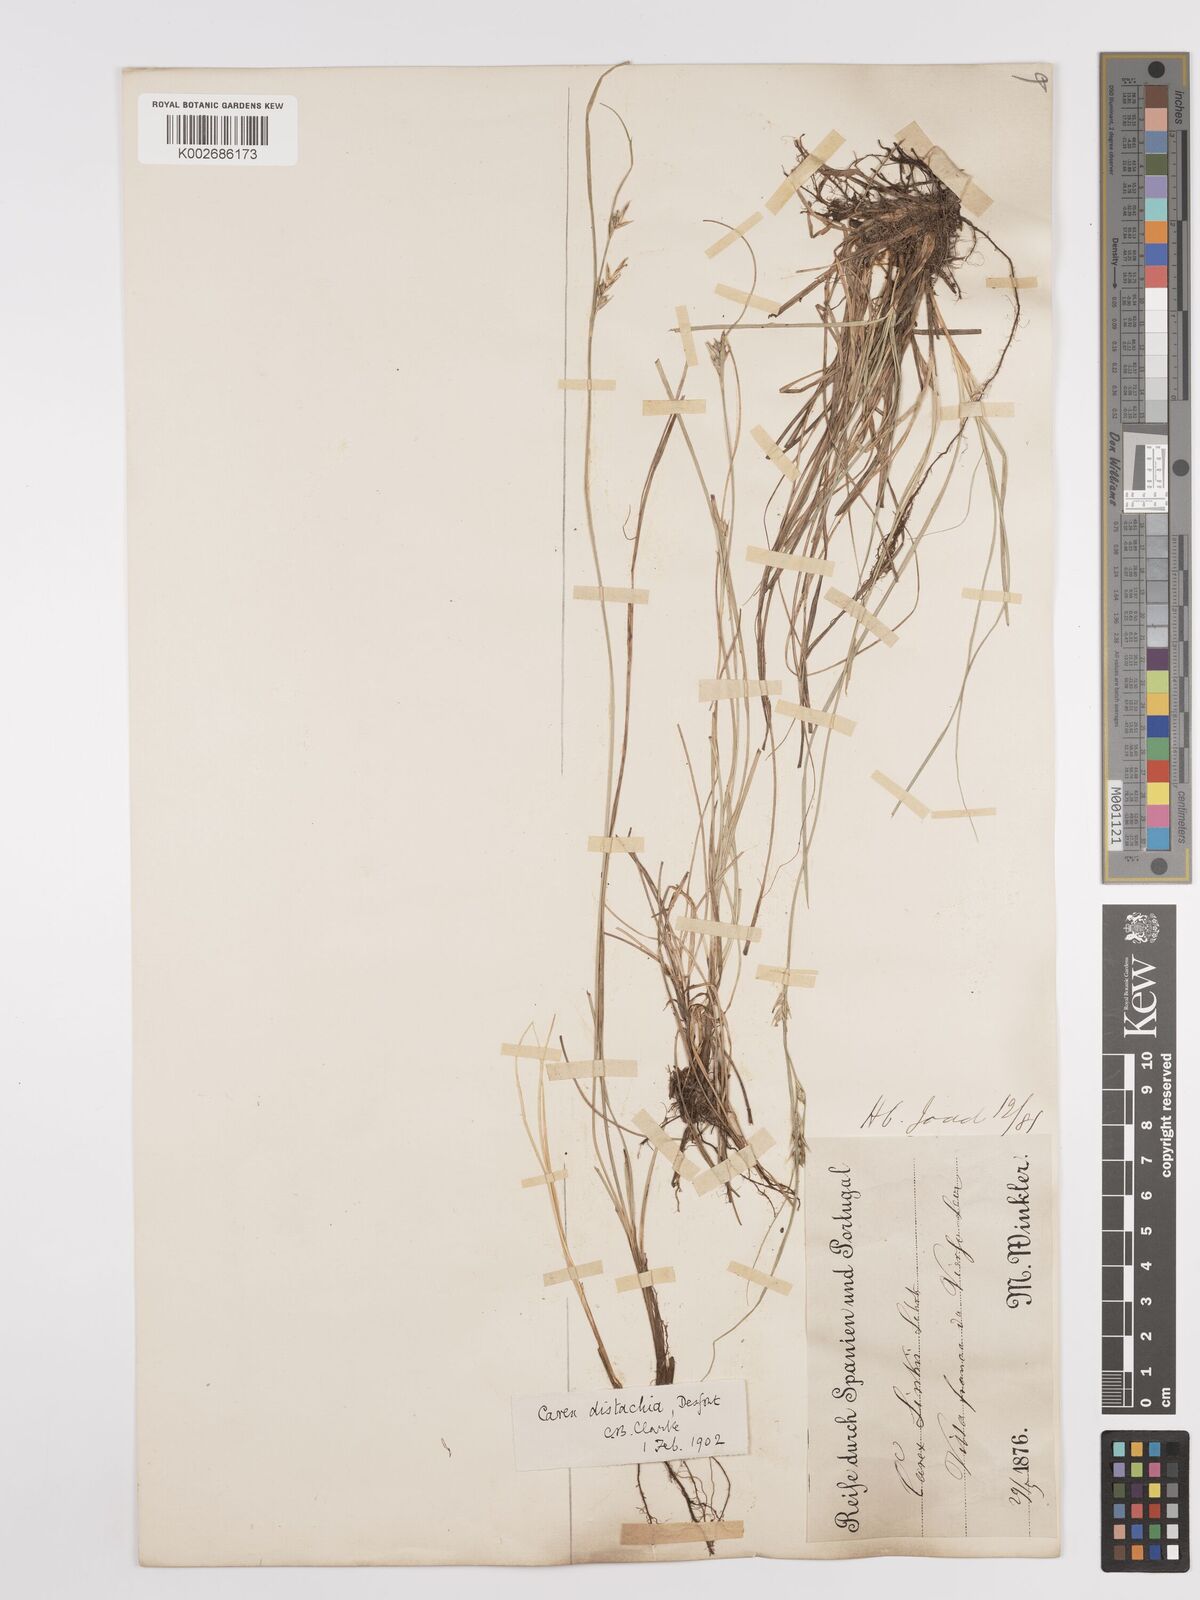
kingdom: Plantae
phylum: Tracheophyta
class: Liliopsida
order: Poales
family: Cyperaceae
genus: Carex
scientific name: Carex distachya
